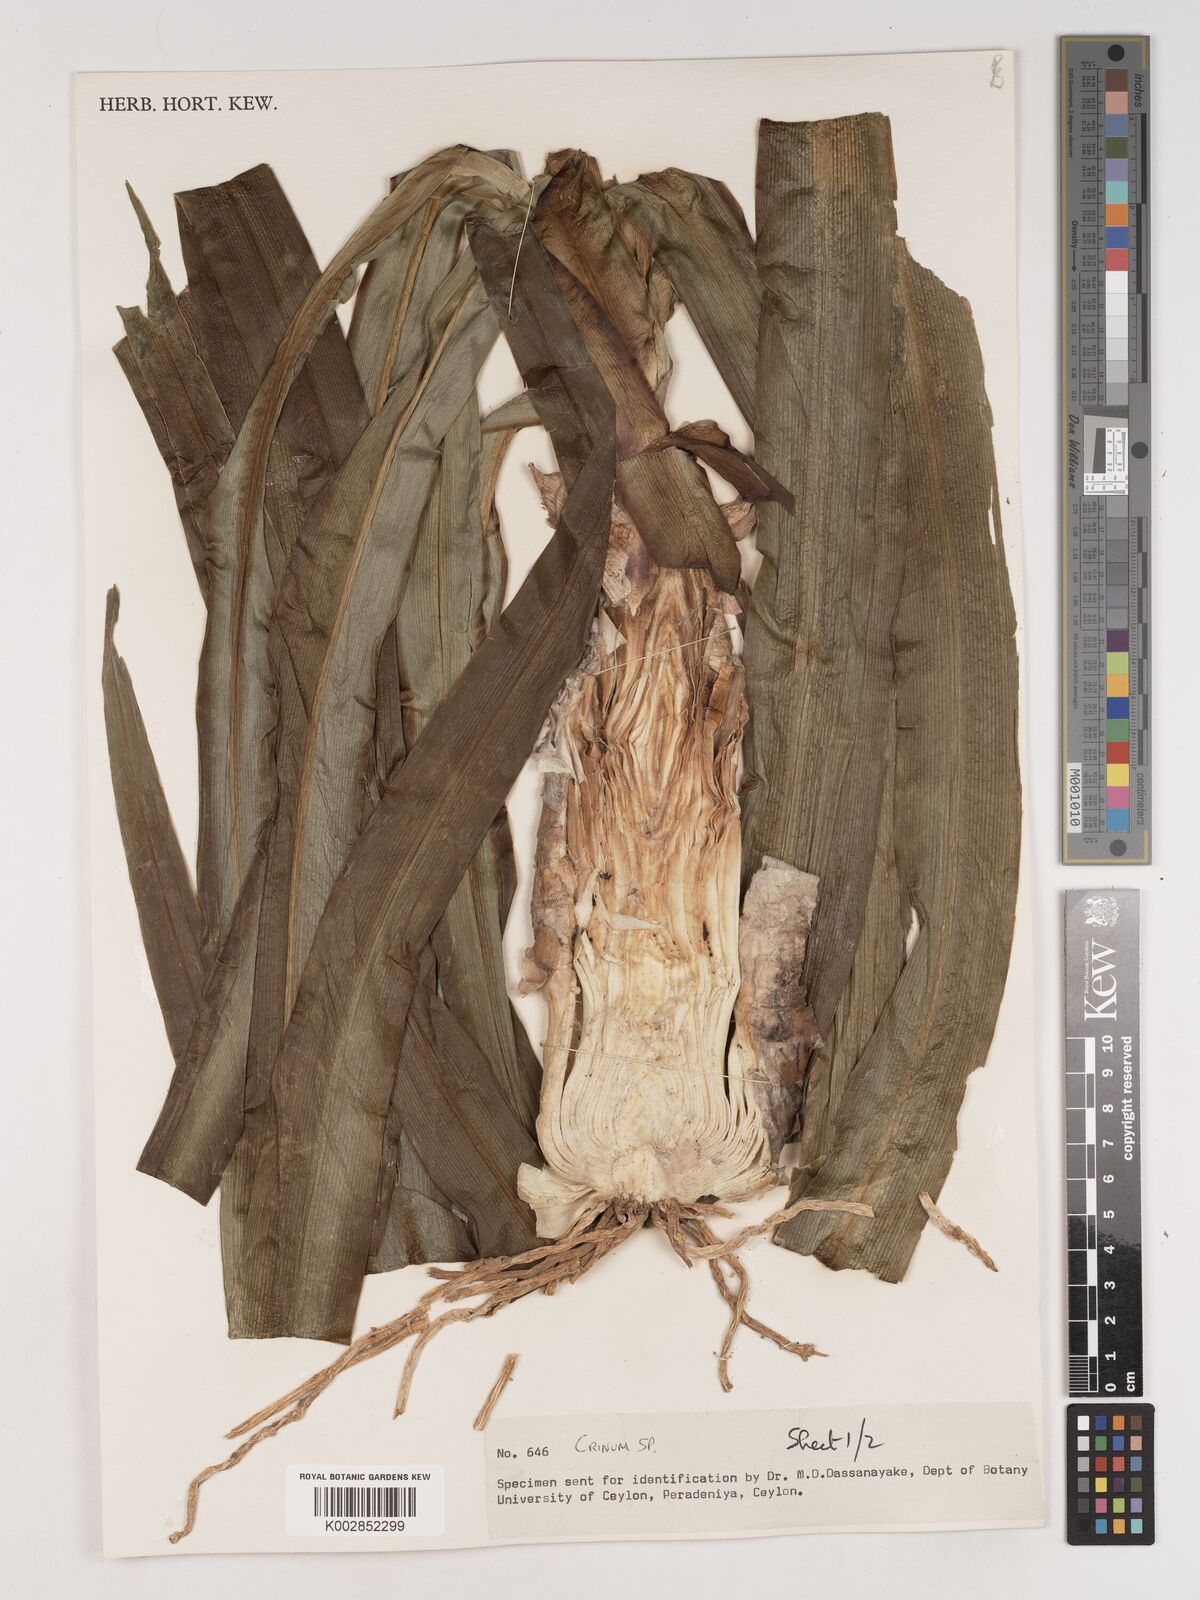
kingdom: Plantae
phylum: Tracheophyta
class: Liliopsida
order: Asparagales
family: Amaryllidaceae
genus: Crinum
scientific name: Crinum
